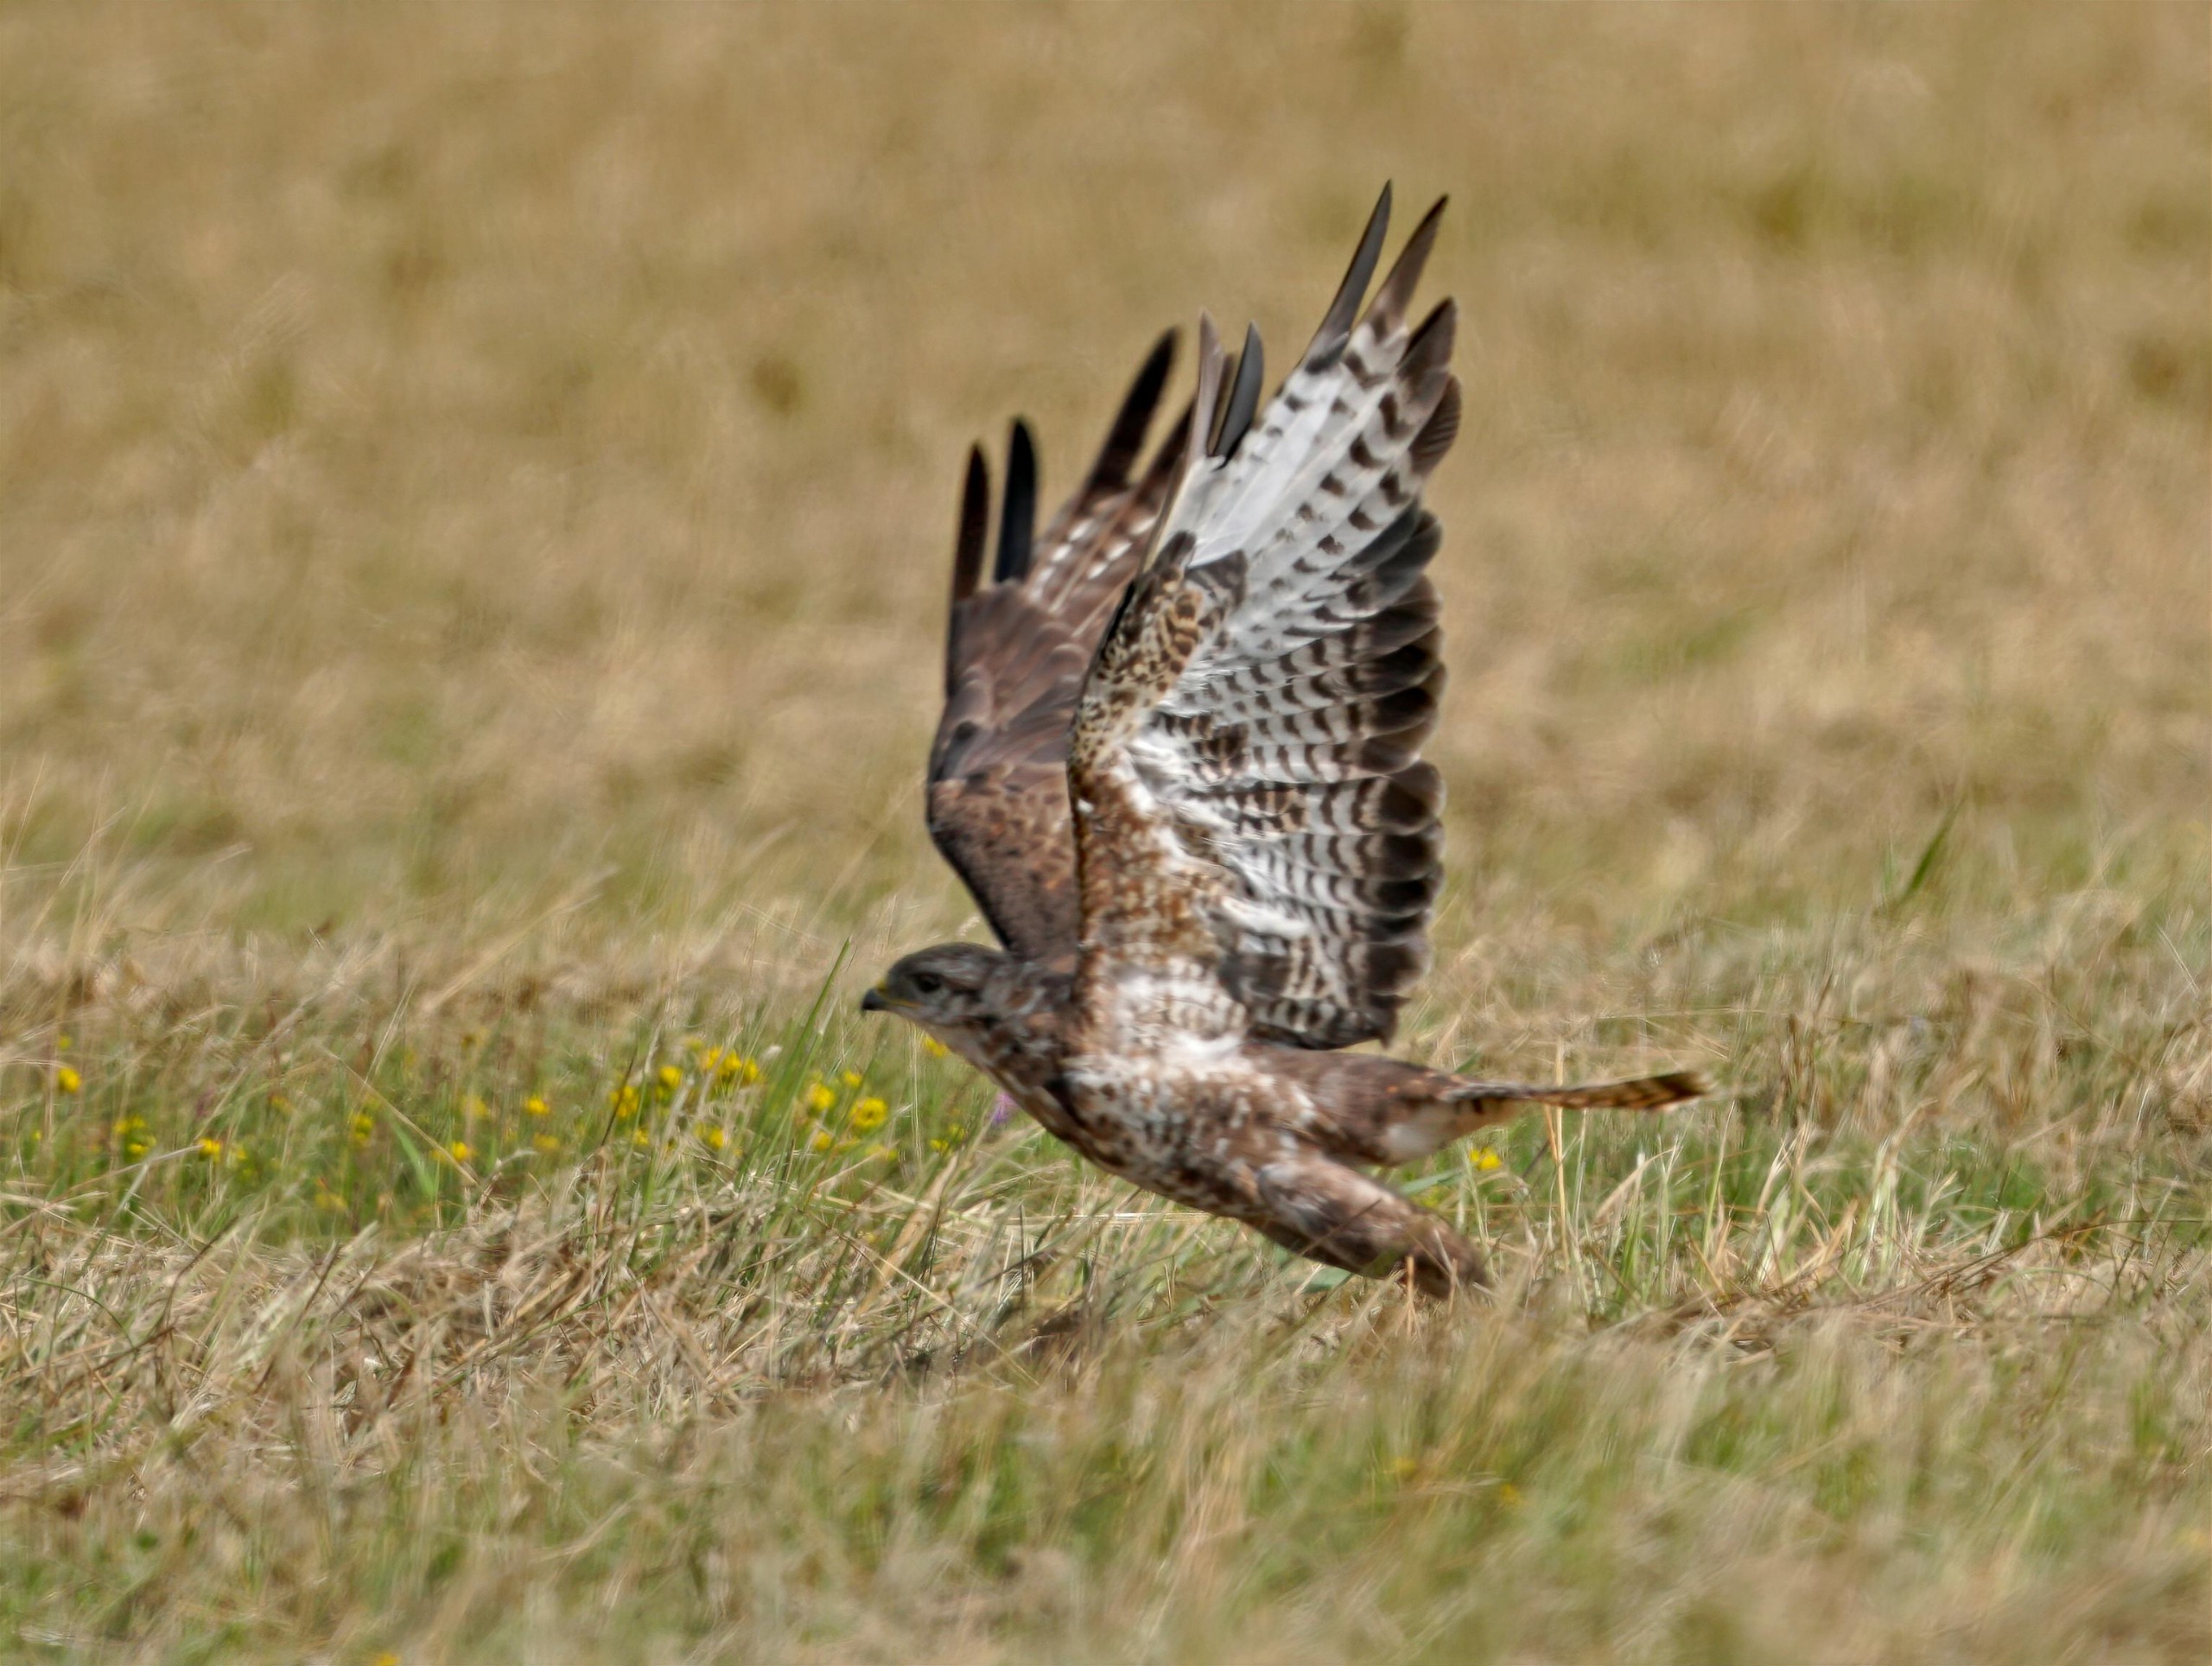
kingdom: Animalia
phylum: Chordata
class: Aves
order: Accipitriformes
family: Accipitridae
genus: Buteo
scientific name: Buteo buteo
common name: Musvåge
